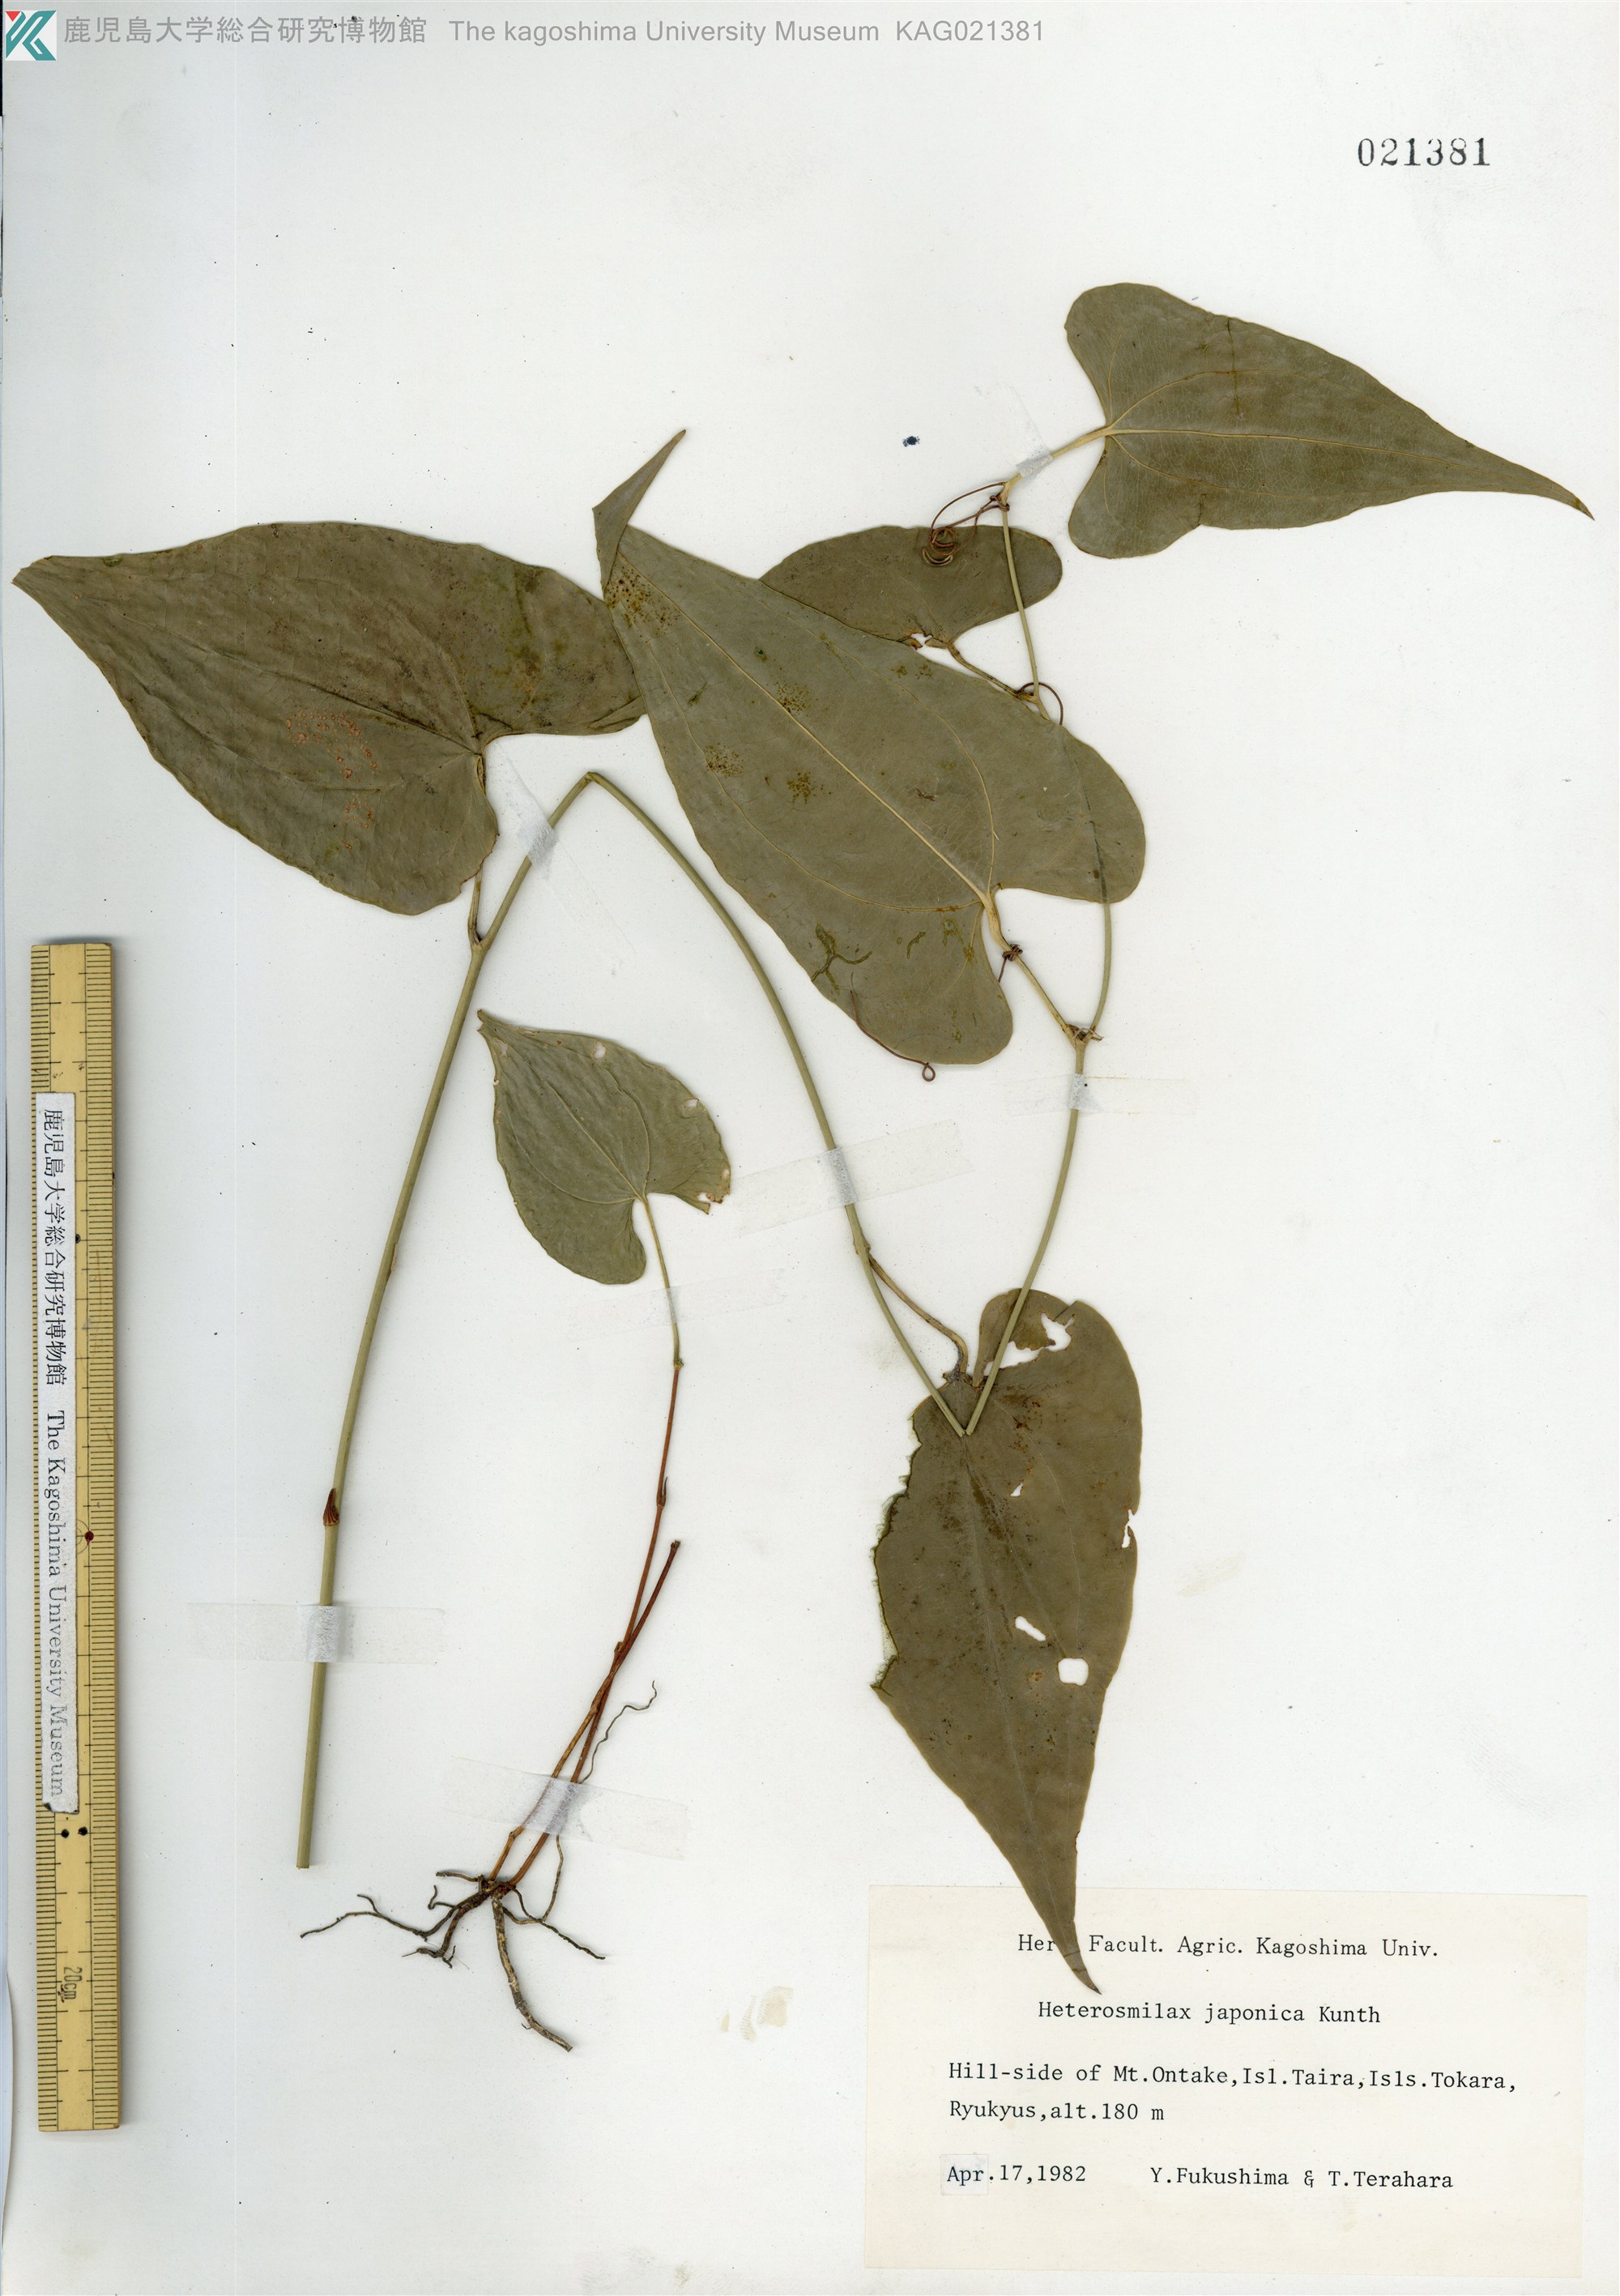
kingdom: Plantae
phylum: Tracheophyta
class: Liliopsida
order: Liliales
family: Smilacaceae
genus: Smilax
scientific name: Smilax insularis
